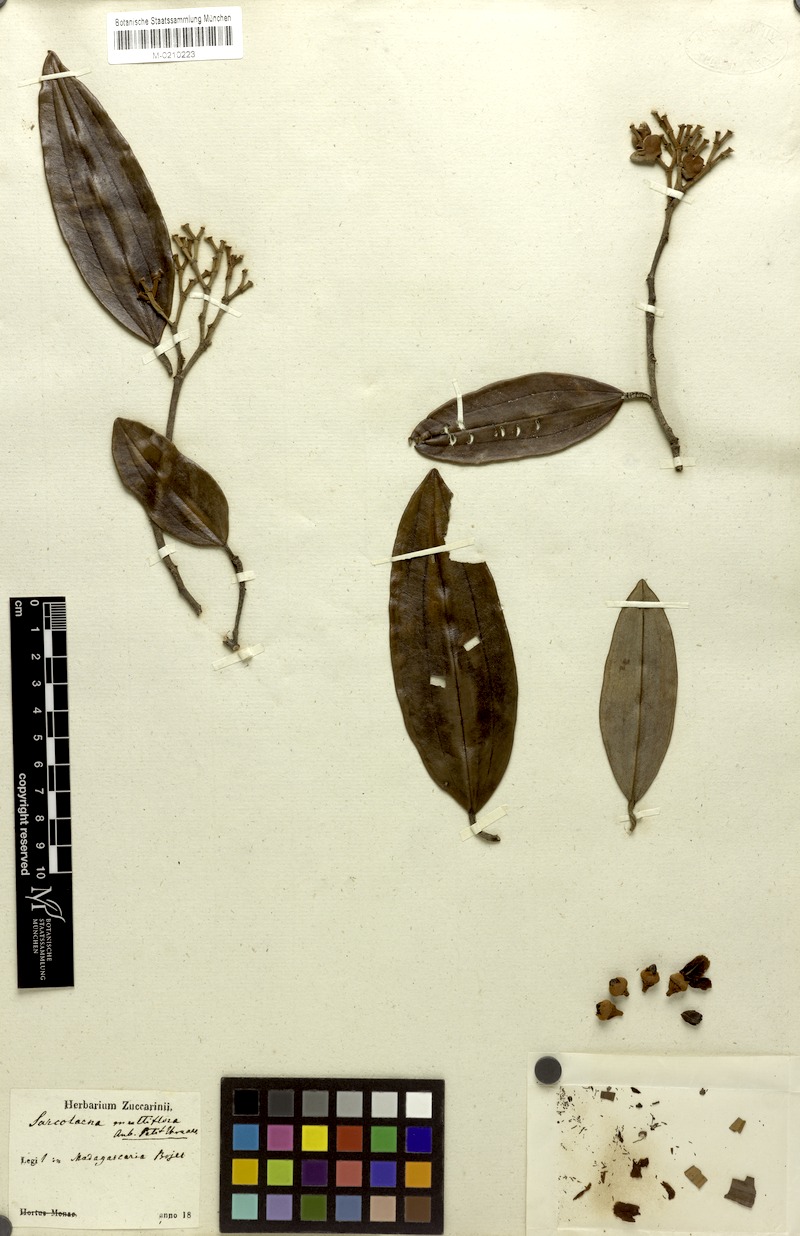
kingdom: Plantae
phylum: Tracheophyta
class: Magnoliopsida
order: Malvales
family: Sarcolaenaceae
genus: Sarcolaena
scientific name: Sarcolaena multiflora
